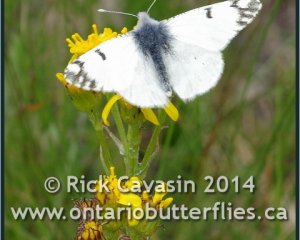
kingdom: Animalia
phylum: Arthropoda
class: Insecta
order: Lepidoptera
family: Pieridae
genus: Euchloe
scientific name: Euchloe ausonides
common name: Large Marble
